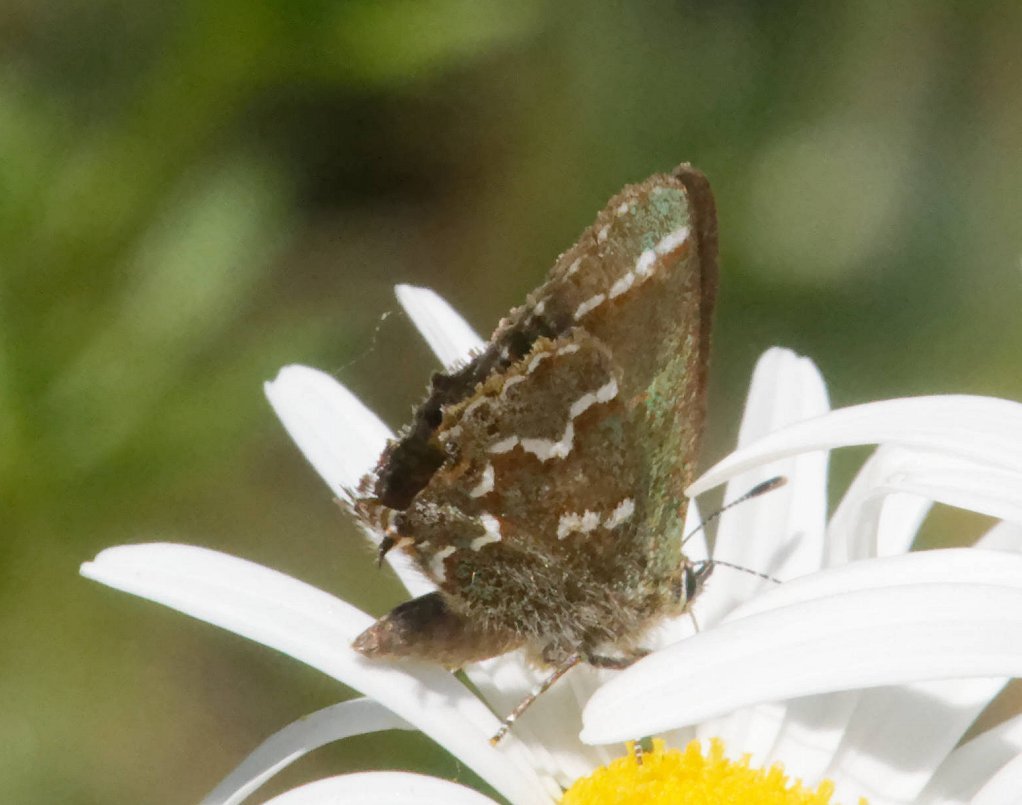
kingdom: Animalia
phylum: Arthropoda
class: Insecta
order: Lepidoptera
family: Lycaenidae
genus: Mitoura
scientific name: Mitoura gryneus
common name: Juniper Hairstreak
